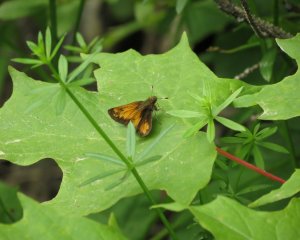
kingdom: Animalia
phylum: Arthropoda
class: Insecta
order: Lepidoptera
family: Hesperiidae
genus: Lon
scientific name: Lon hobomok
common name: Hobomok Skipper
